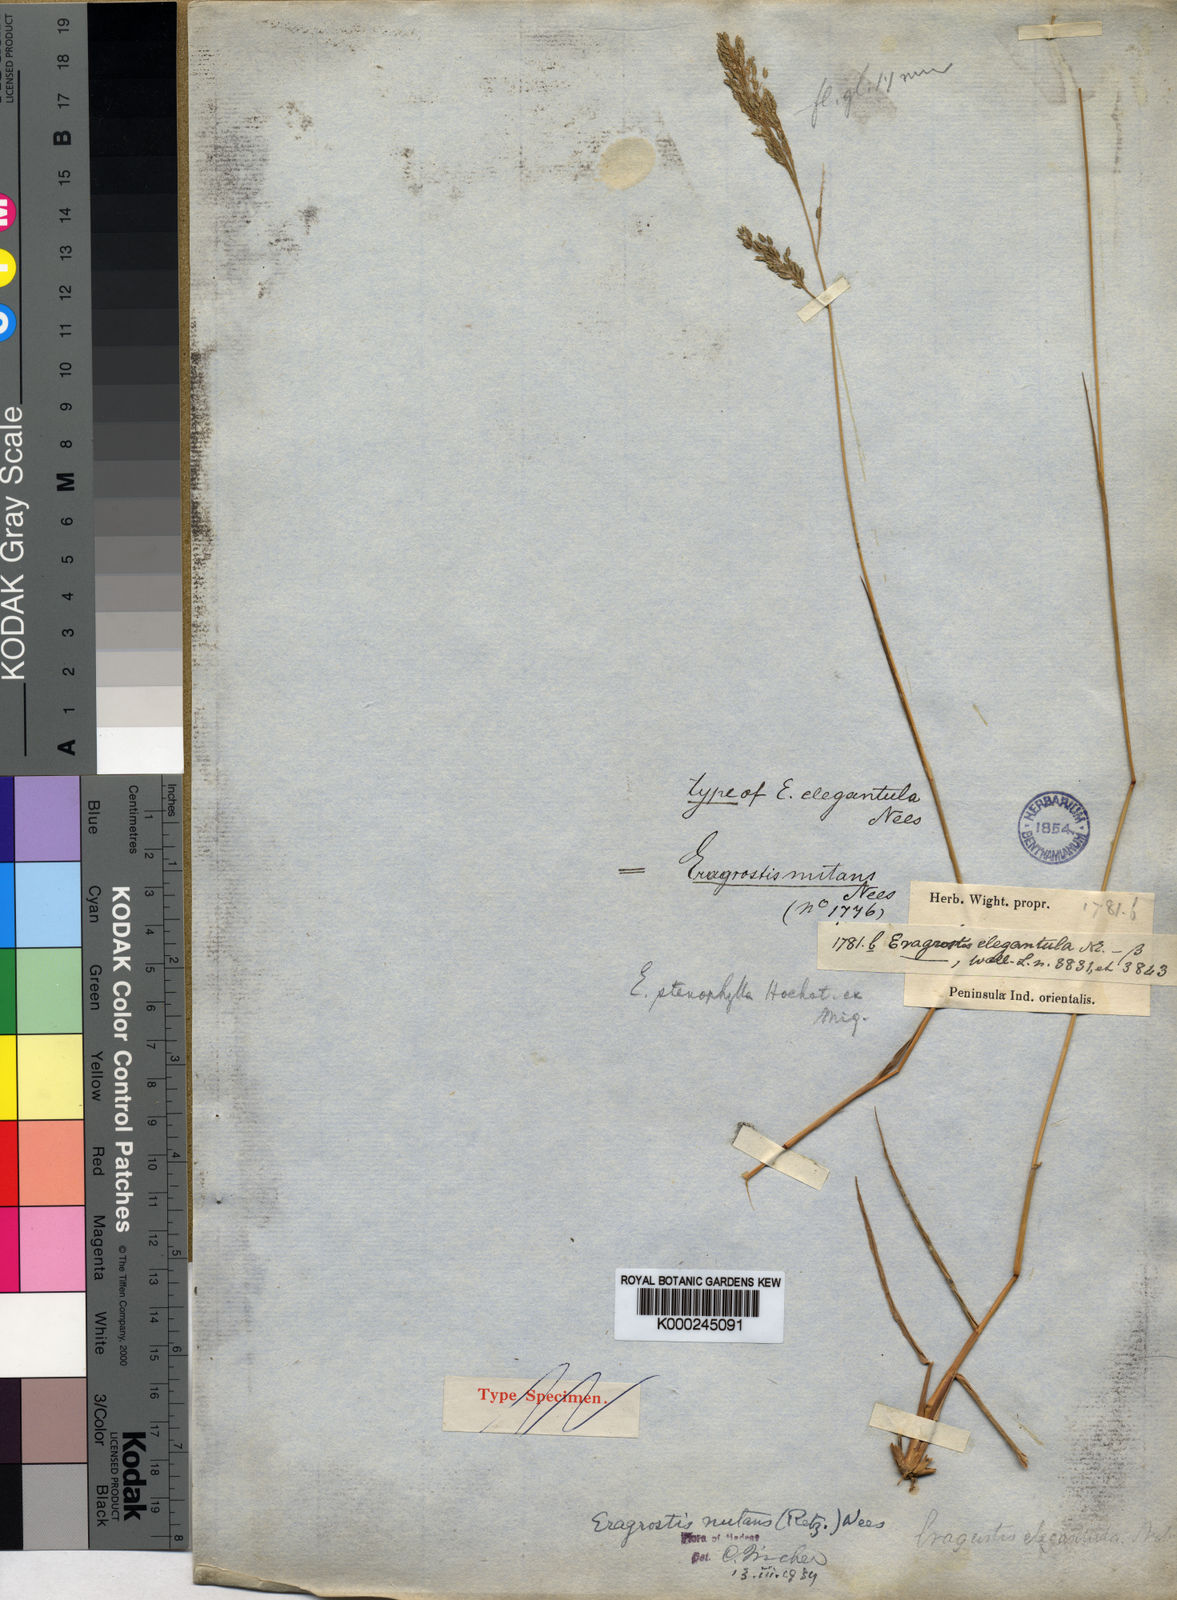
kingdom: Plantae
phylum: Tracheophyta
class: Liliopsida
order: Poales
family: Poaceae
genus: Eragrostis
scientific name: Eragrostis nutans
